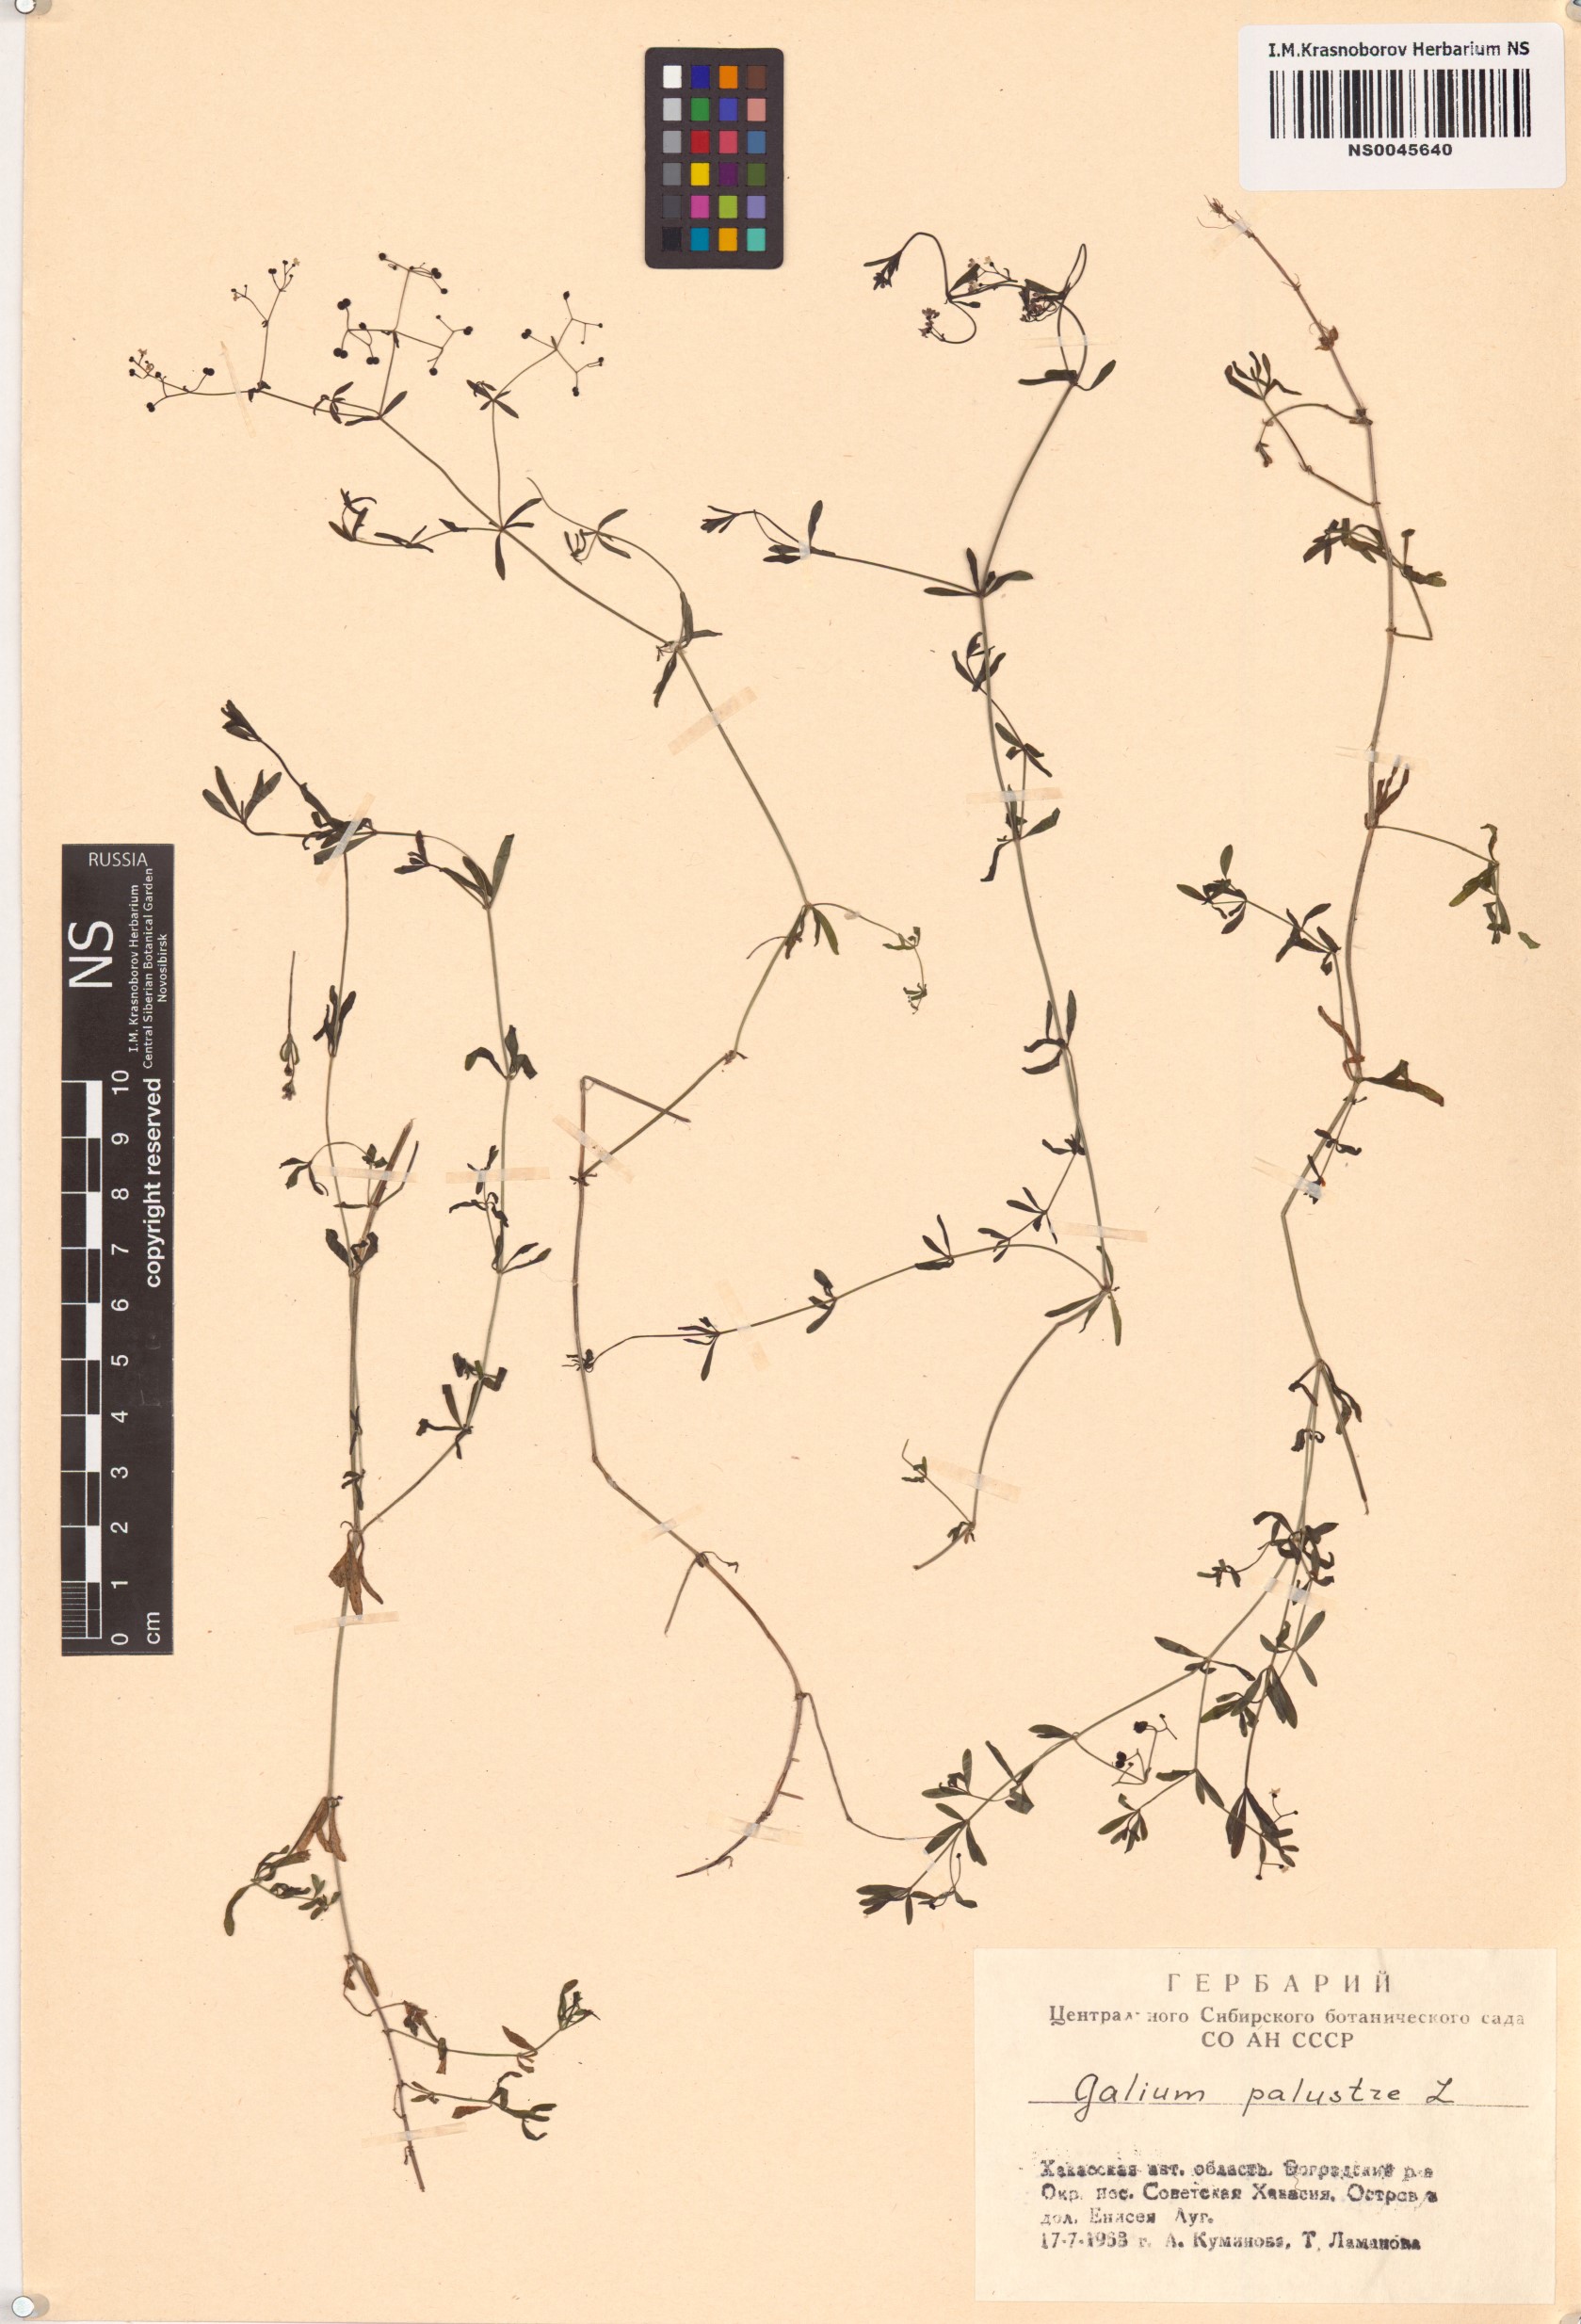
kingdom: Plantae
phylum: Tracheophyta
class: Magnoliopsida
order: Gentianales
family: Rubiaceae
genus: Galium
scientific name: Galium palustre
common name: Common marsh-bedstraw
